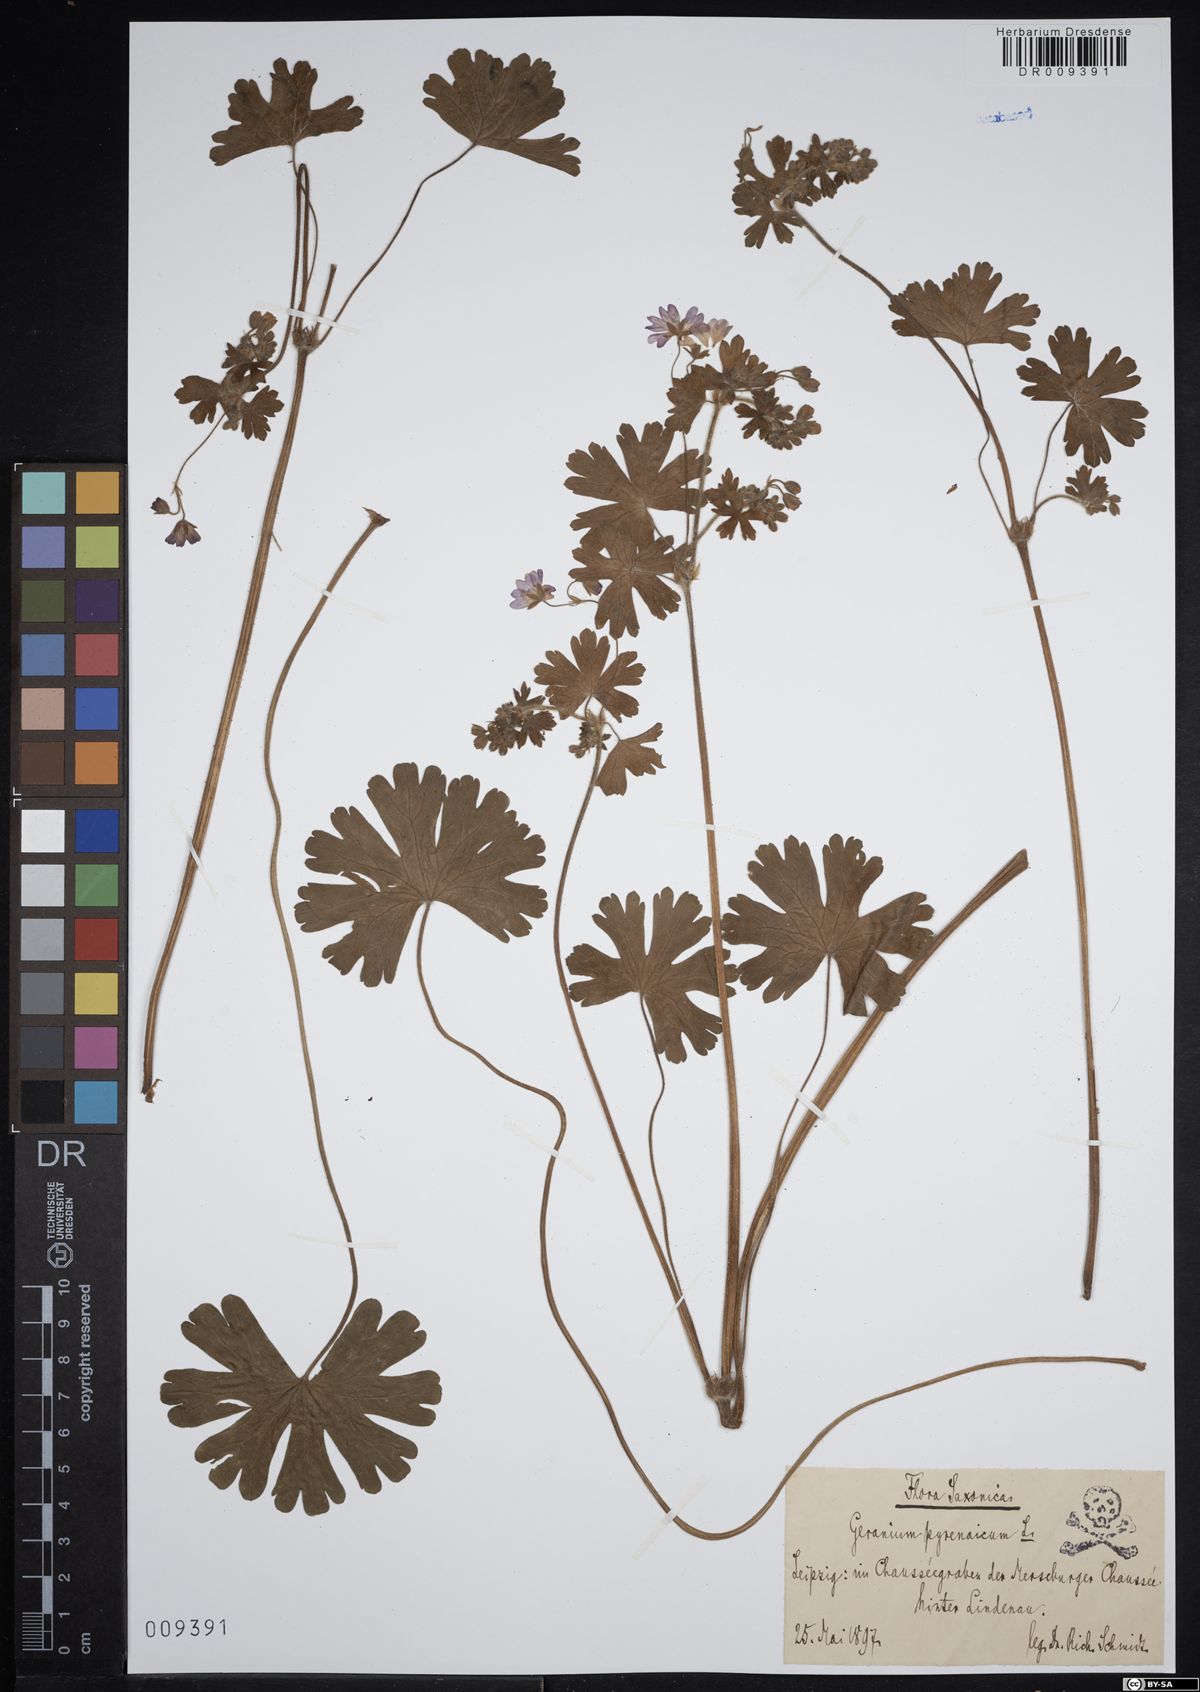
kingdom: Plantae
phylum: Tracheophyta
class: Magnoliopsida
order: Geraniales
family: Geraniaceae
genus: Geranium
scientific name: Geranium pyrenaicum
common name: Hedgerow crane's-bill
